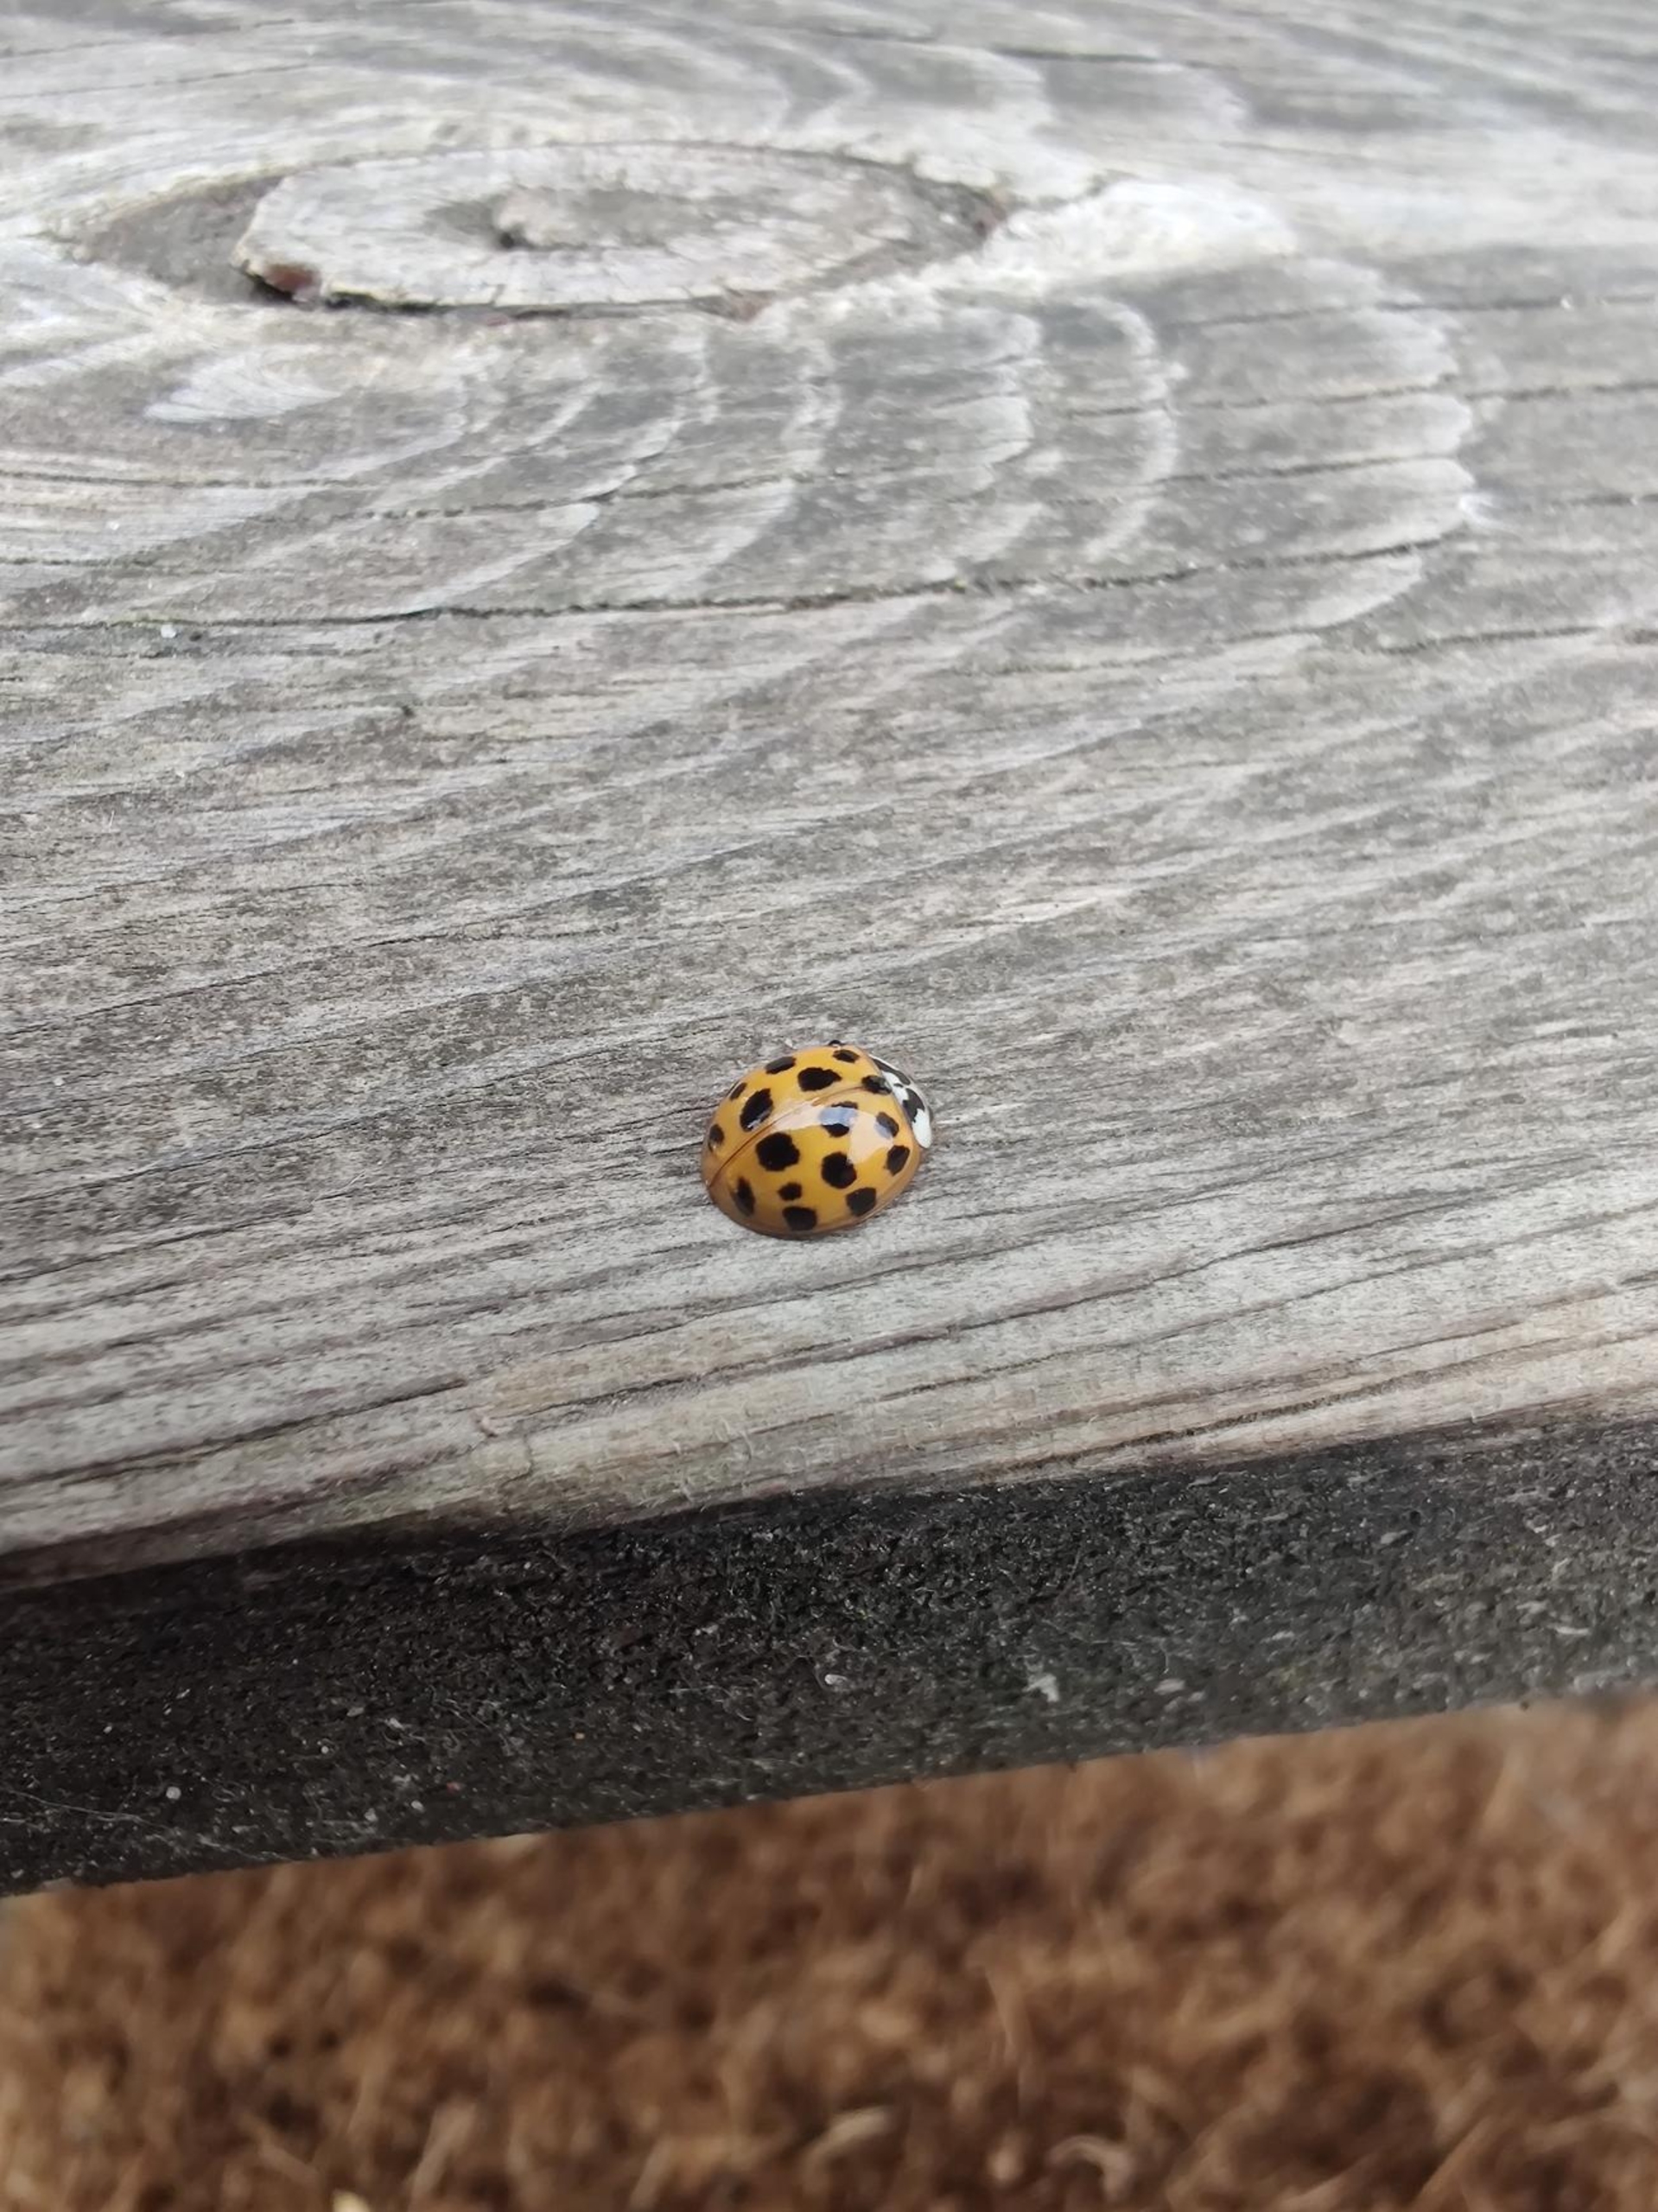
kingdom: Animalia
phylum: Arthropoda
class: Insecta
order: Coleoptera
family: Coccinellidae
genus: Harmonia
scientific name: Harmonia axyridis
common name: Harlekinmariehøne
